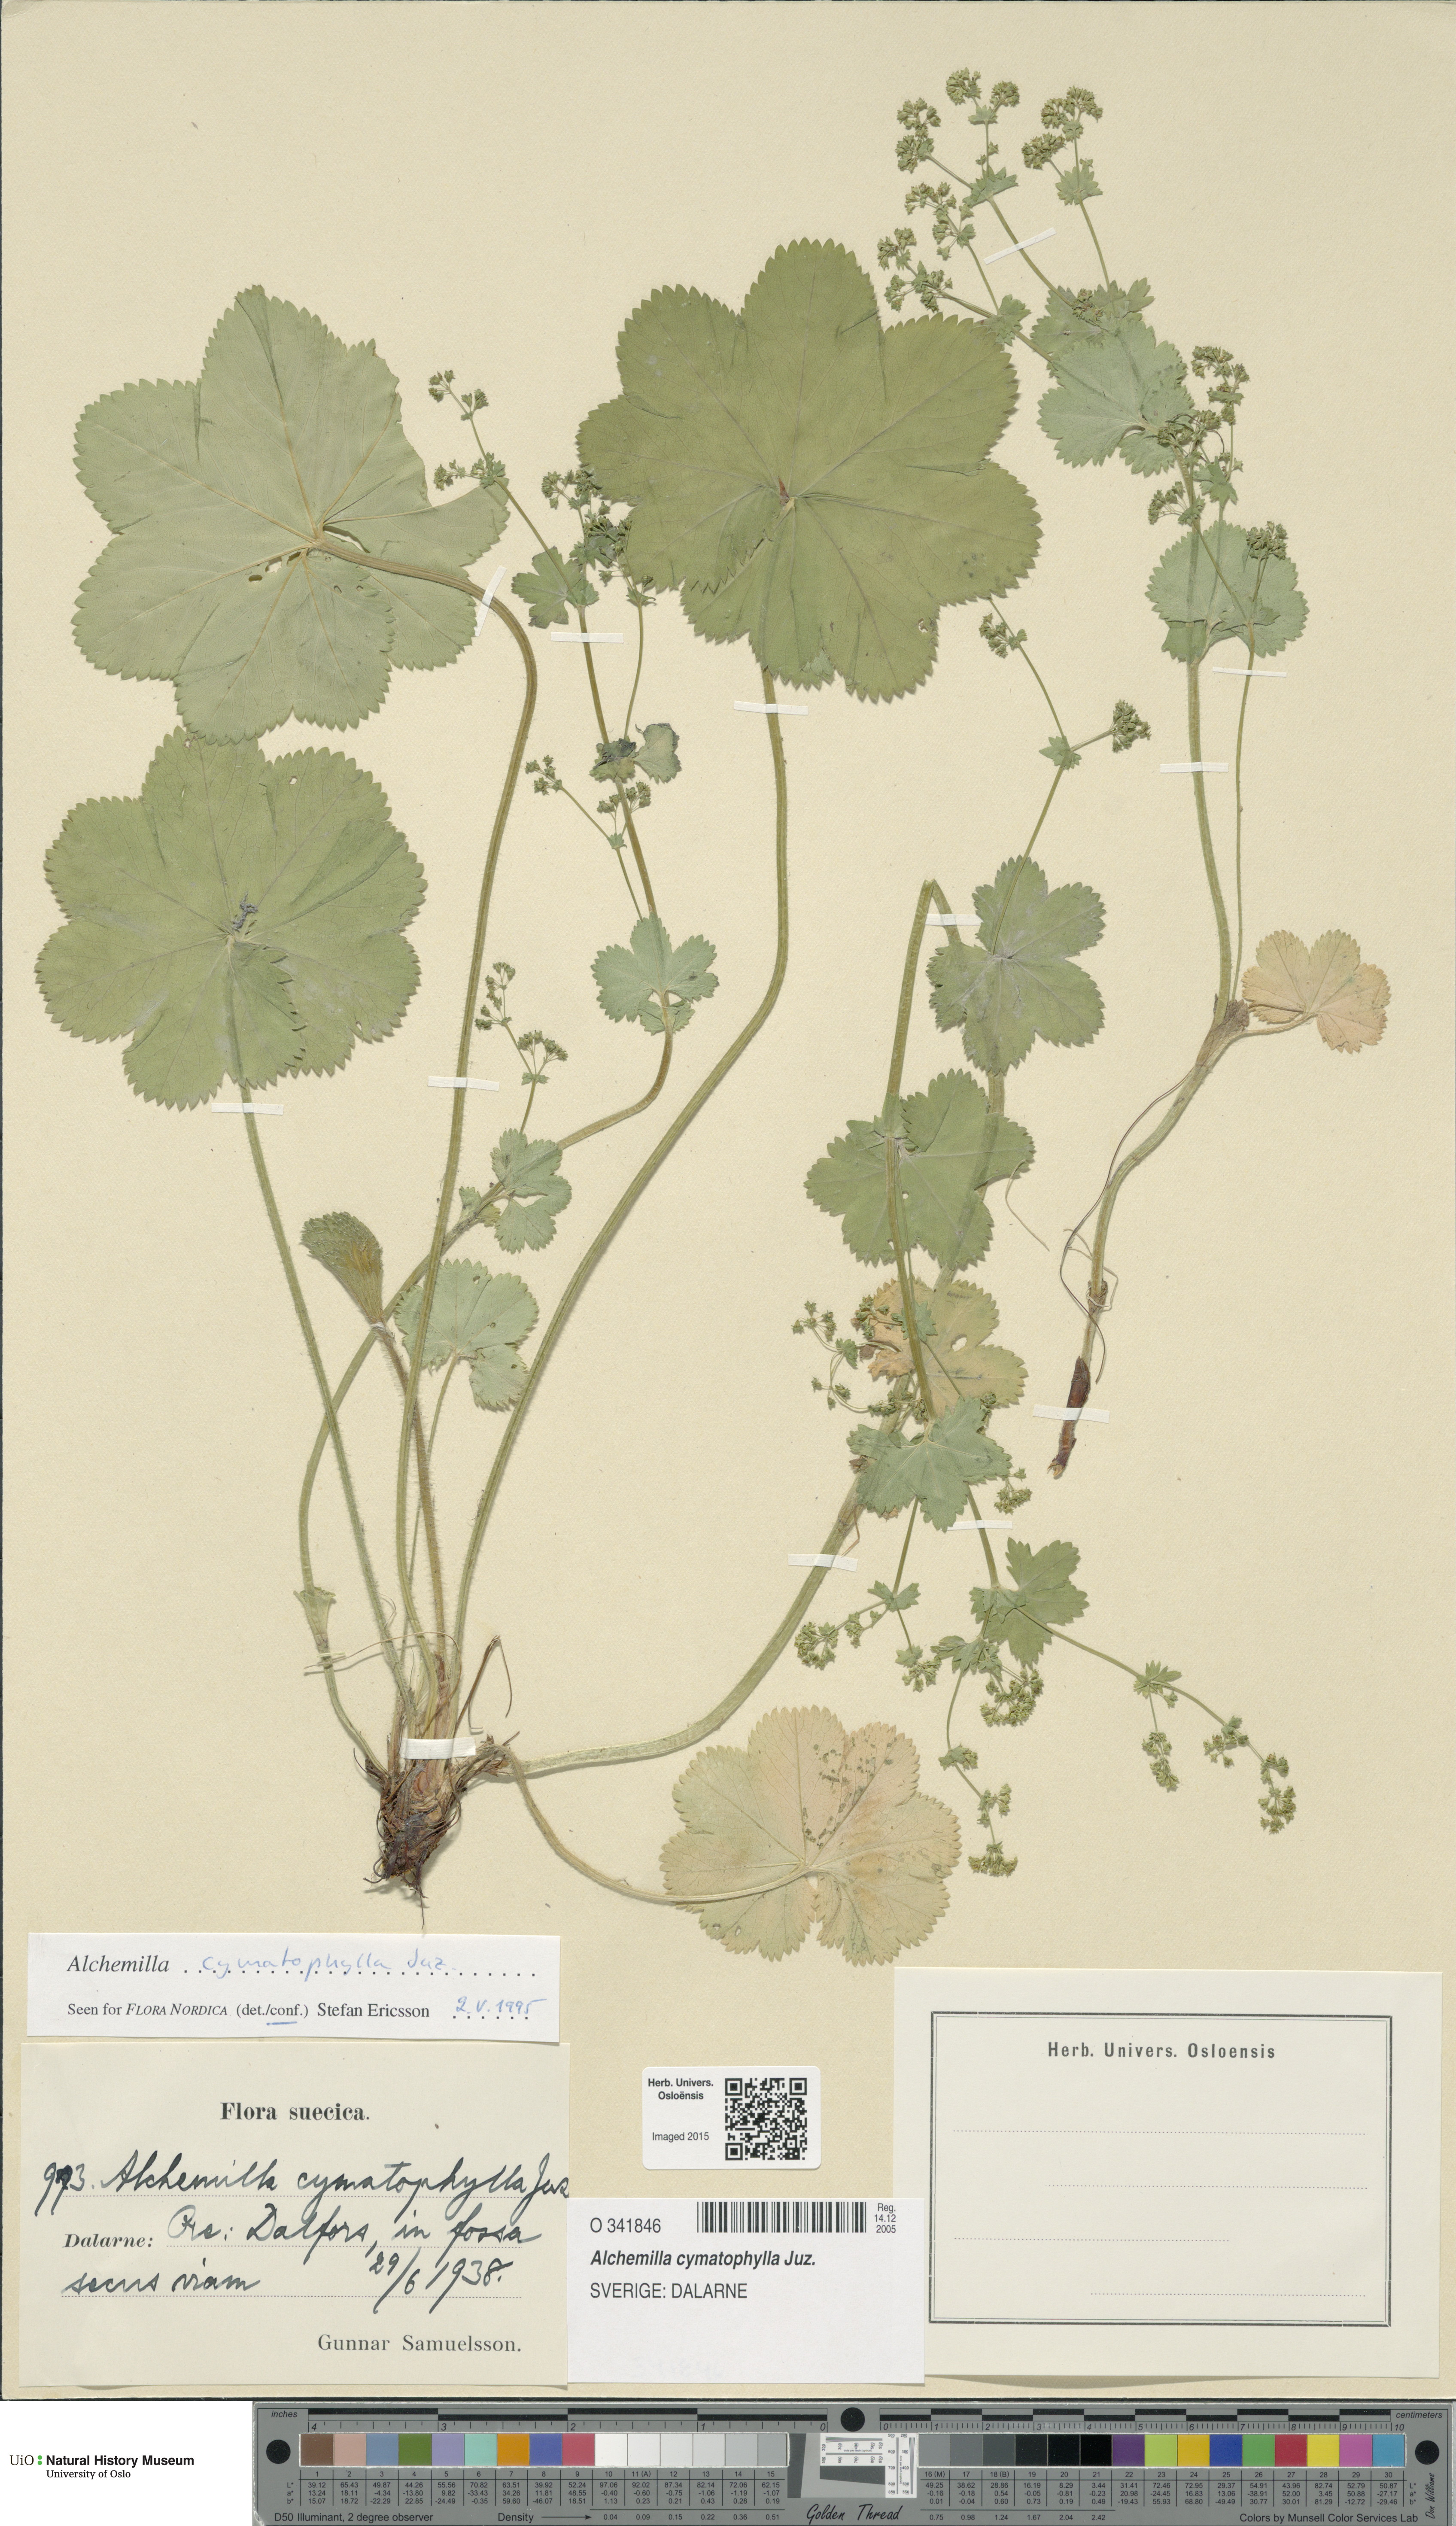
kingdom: Plantae
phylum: Tracheophyta
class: Magnoliopsida
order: Rosales
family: Rosaceae
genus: Alchemilla
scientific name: Alchemilla cymatophylla
